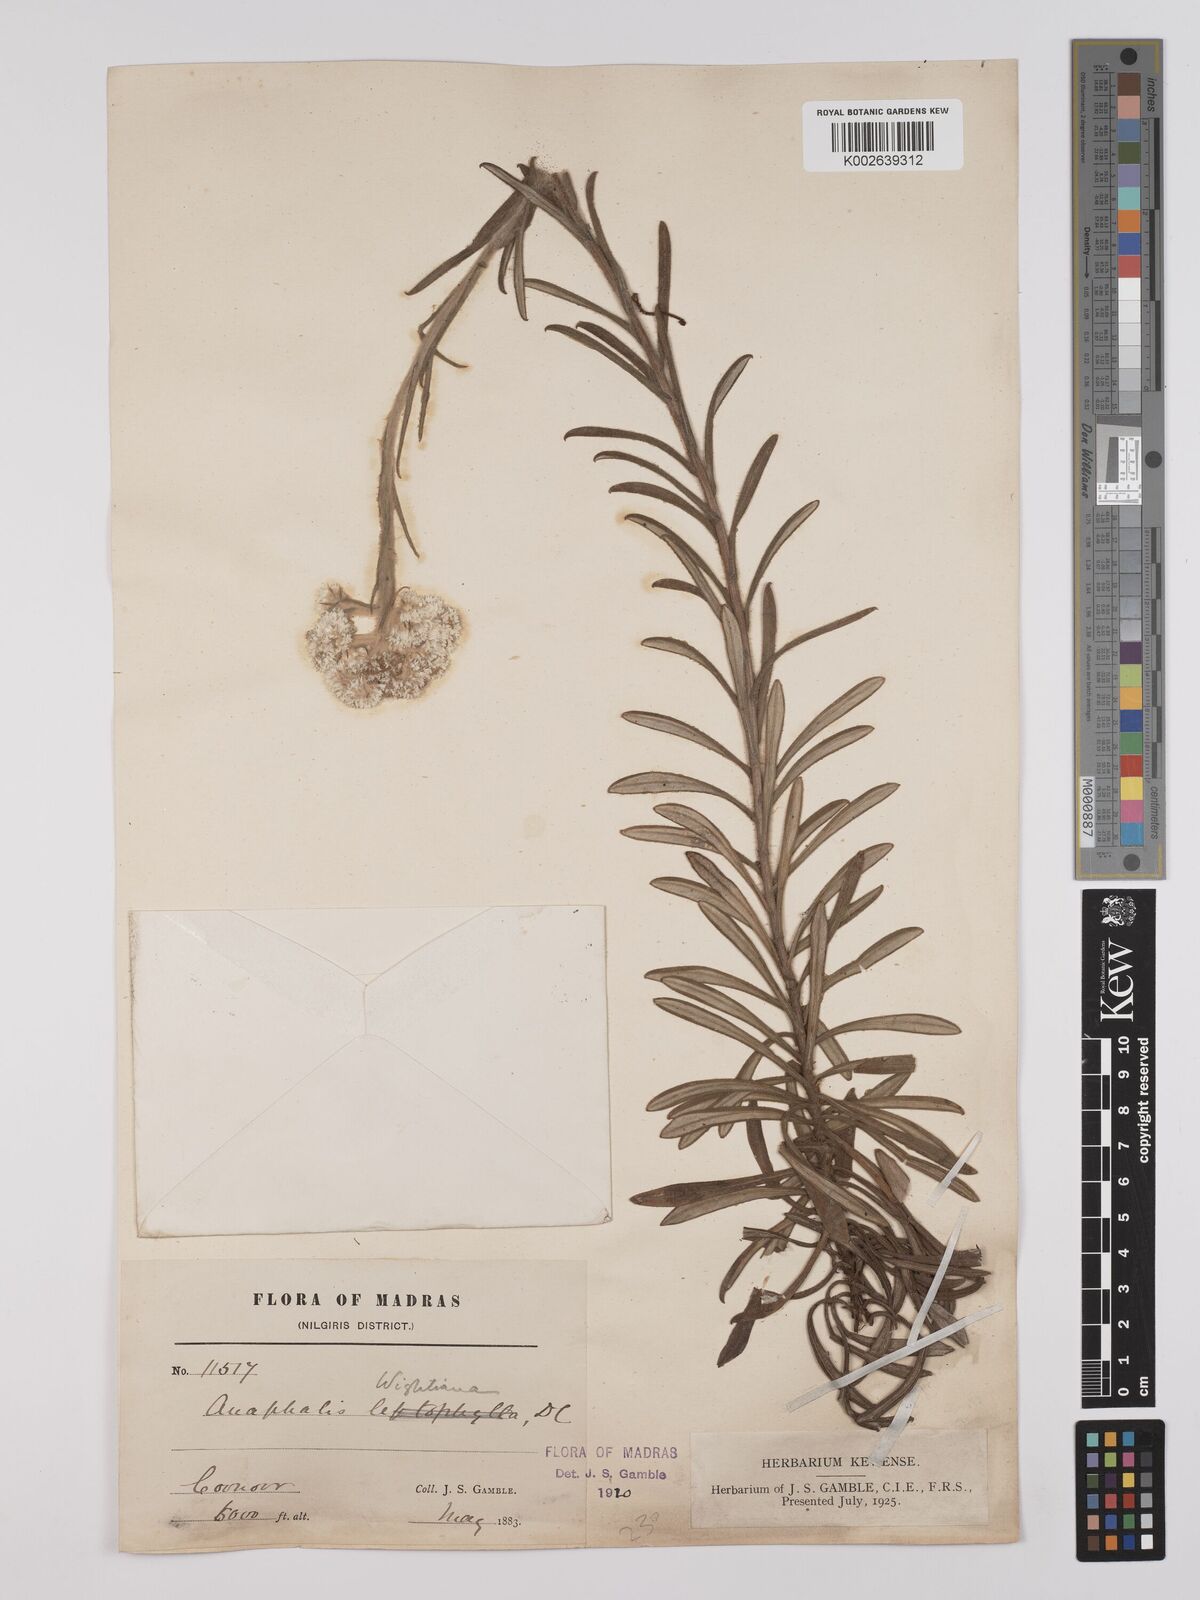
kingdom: Plantae
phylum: Tracheophyta
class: Magnoliopsida
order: Asterales
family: Asteraceae
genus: Anaphalis
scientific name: Anaphalis wightiana
